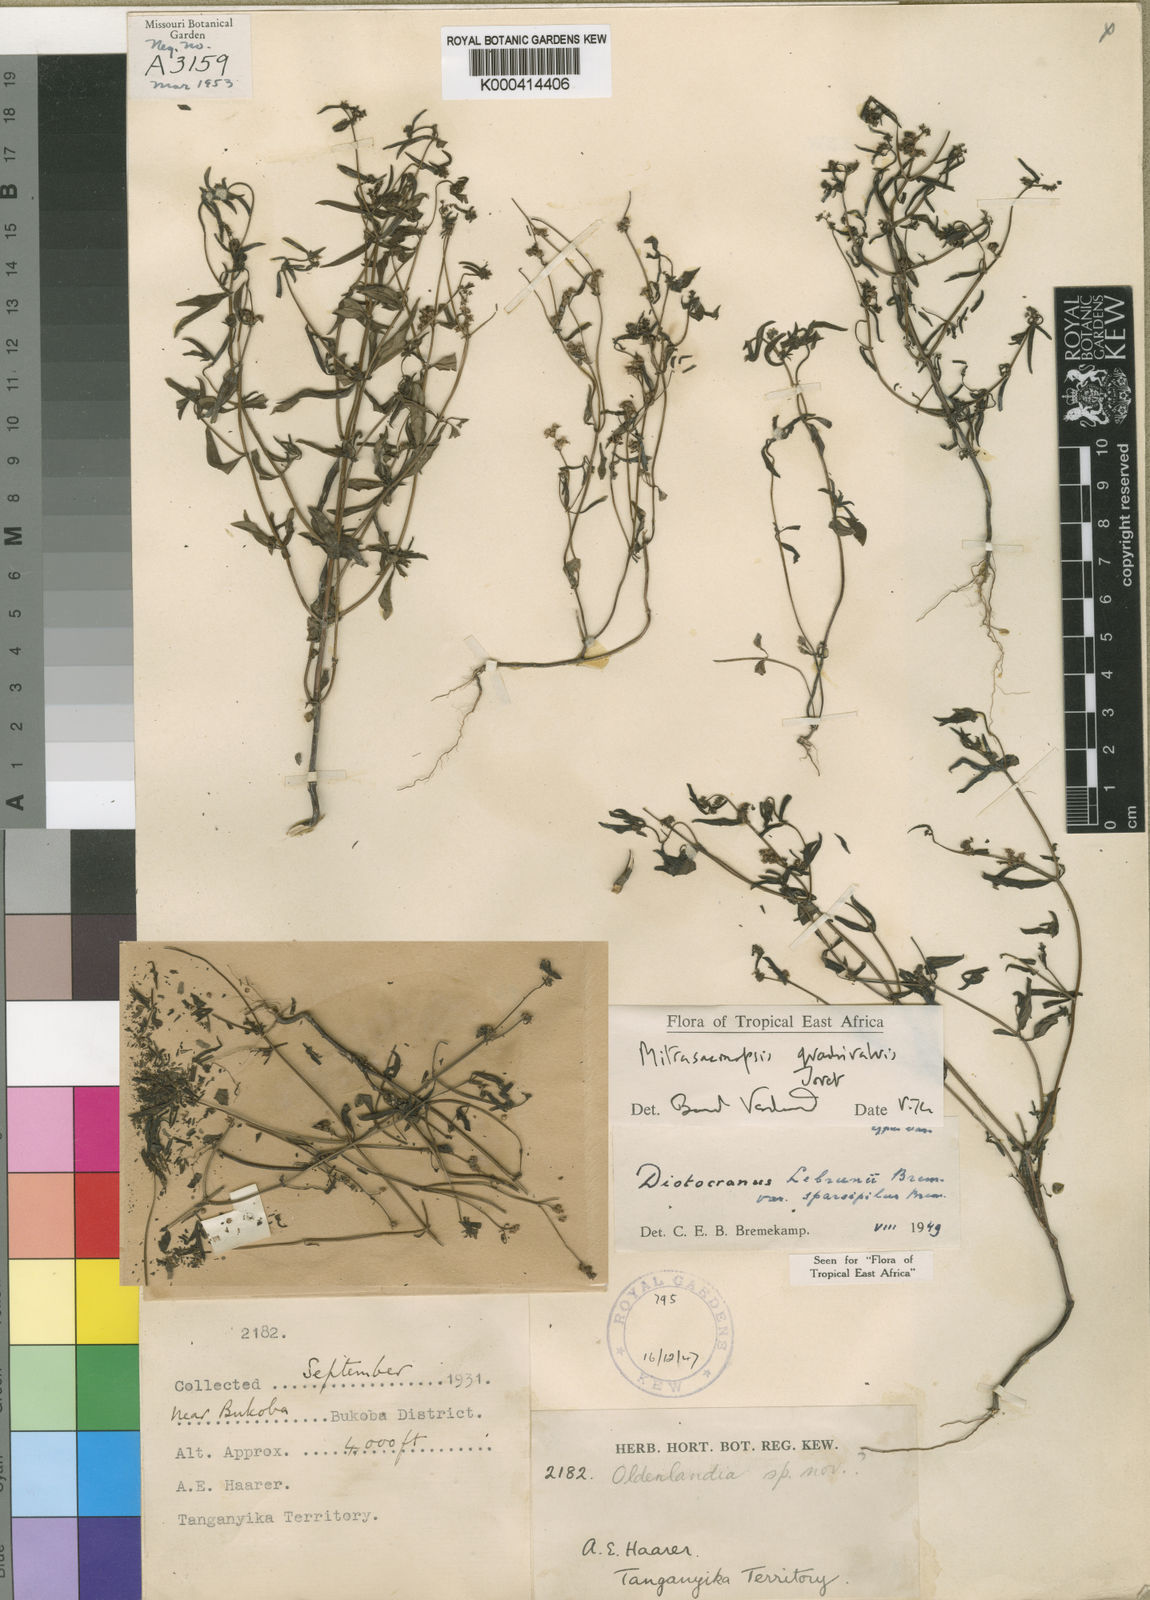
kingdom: Plantae
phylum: Tracheophyta
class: Magnoliopsida
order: Gentianales
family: Rubiaceae
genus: Mitrasacmopsis
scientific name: Mitrasacmopsis quadrivalvis
